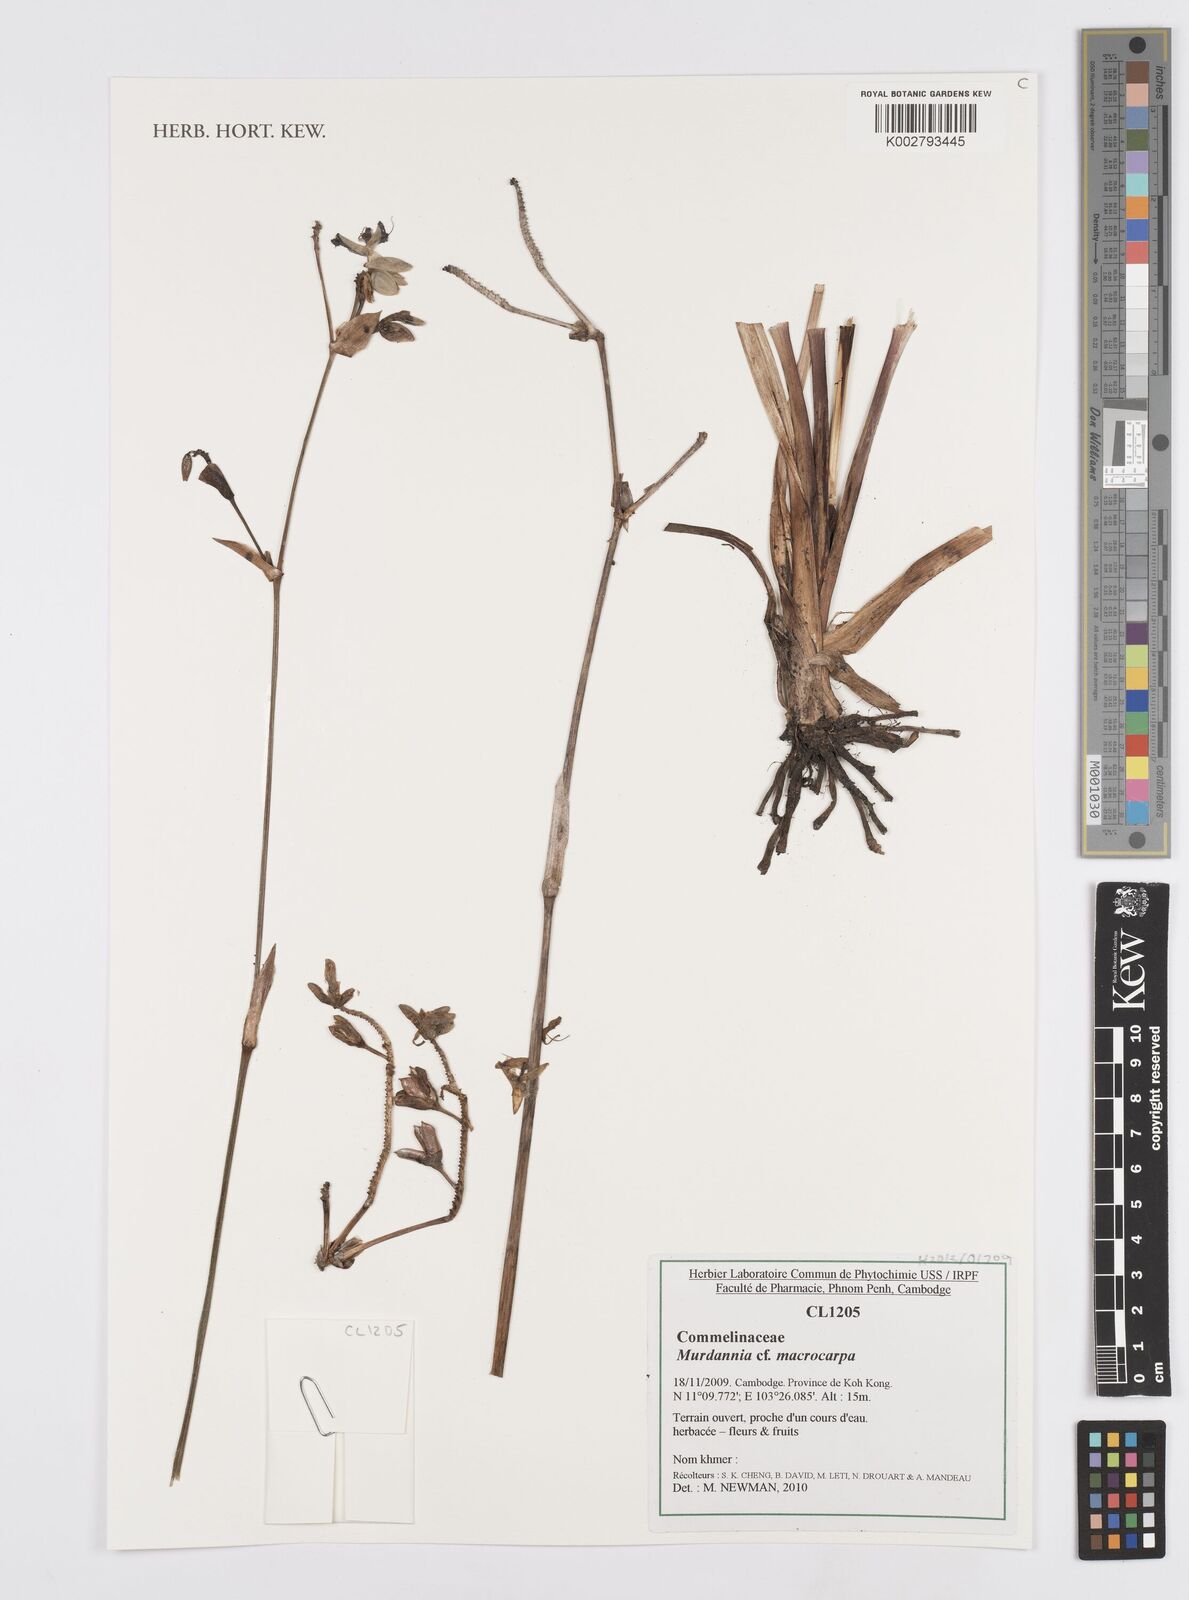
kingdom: Plantae
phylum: Tracheophyta
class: Liliopsida
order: Commelinales
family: Commelinaceae
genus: Murdannia
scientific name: Murdannia macrocarpa
